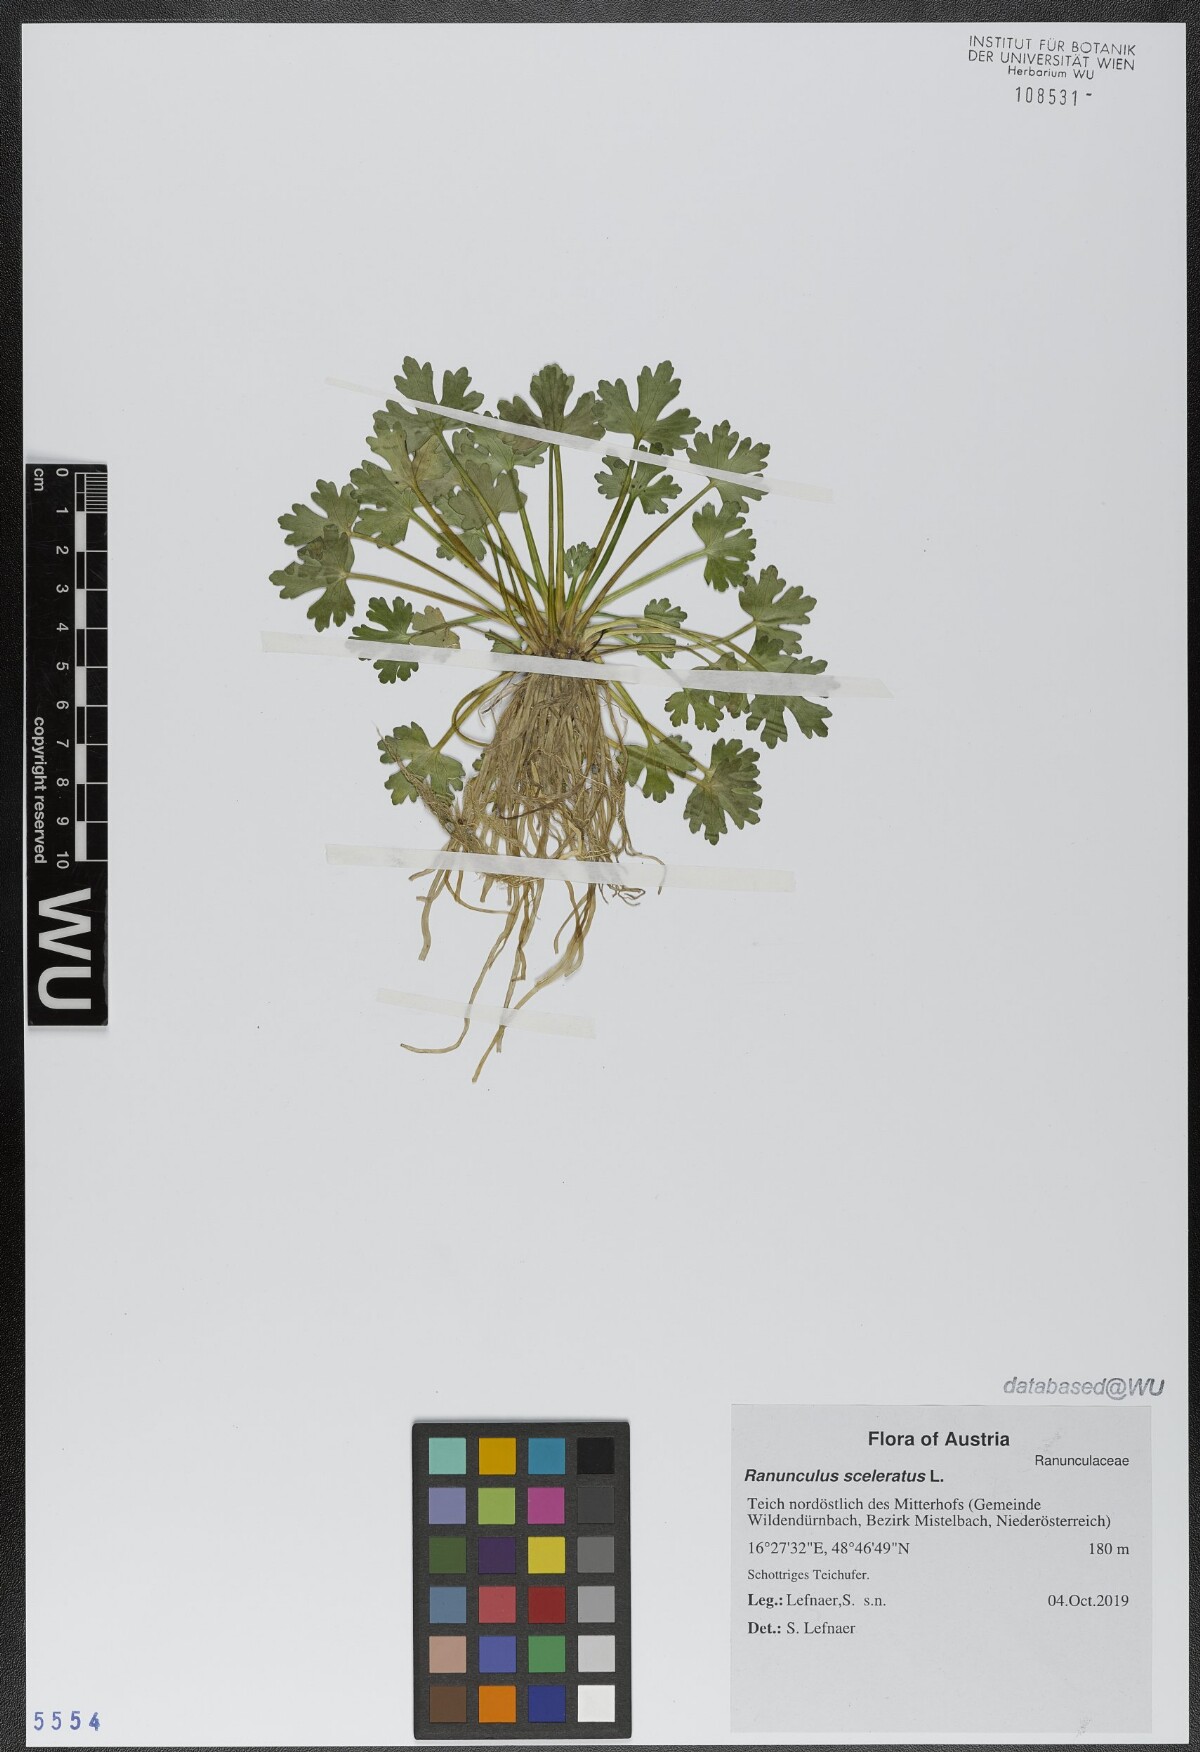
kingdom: Plantae
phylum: Tracheophyta
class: Magnoliopsida
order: Ranunculales
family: Ranunculaceae
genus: Ranunculus
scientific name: Ranunculus sceleratus
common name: Celery-leaved buttercup
